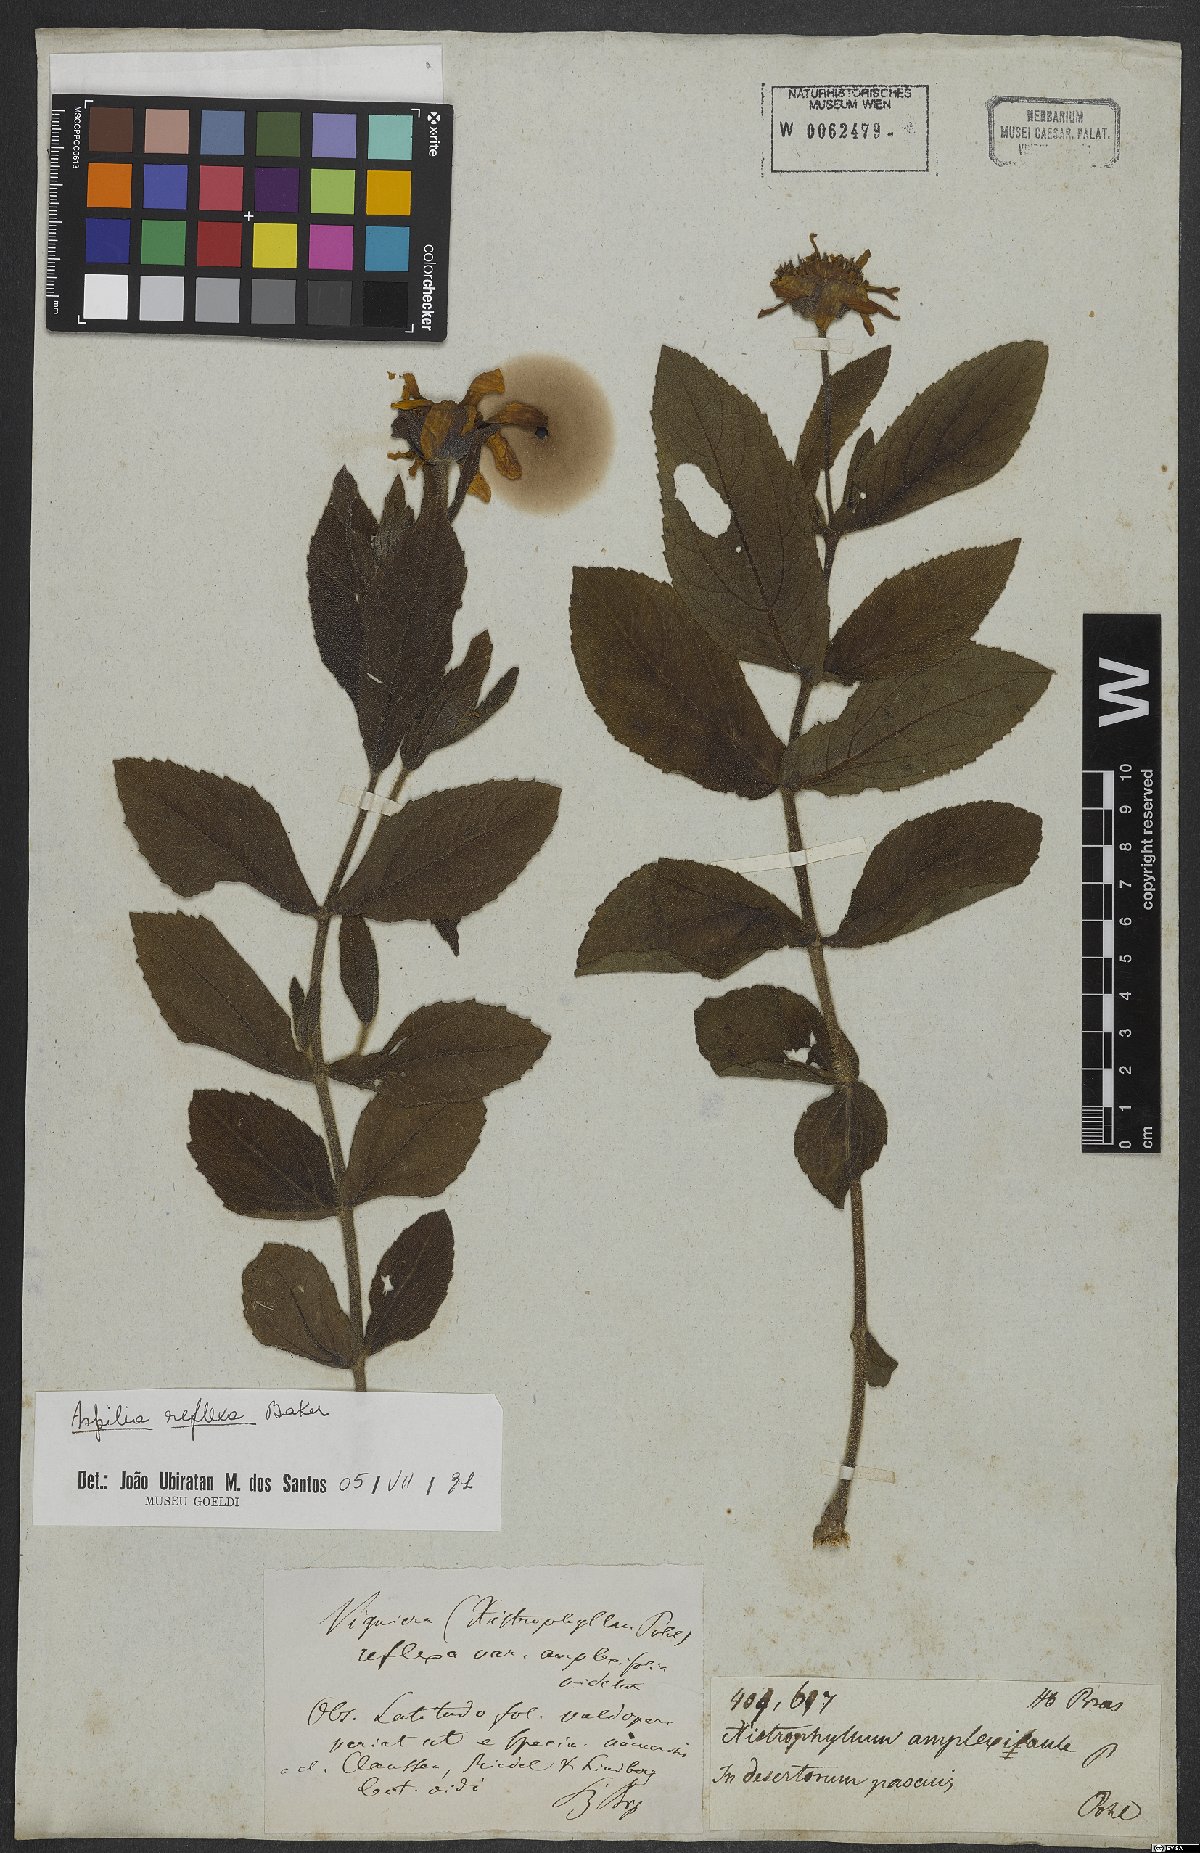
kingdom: Plantae
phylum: Tracheophyta
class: Magnoliopsida
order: Asterales
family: Asteraceae
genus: Wedelia
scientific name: Wedelia reflexa
